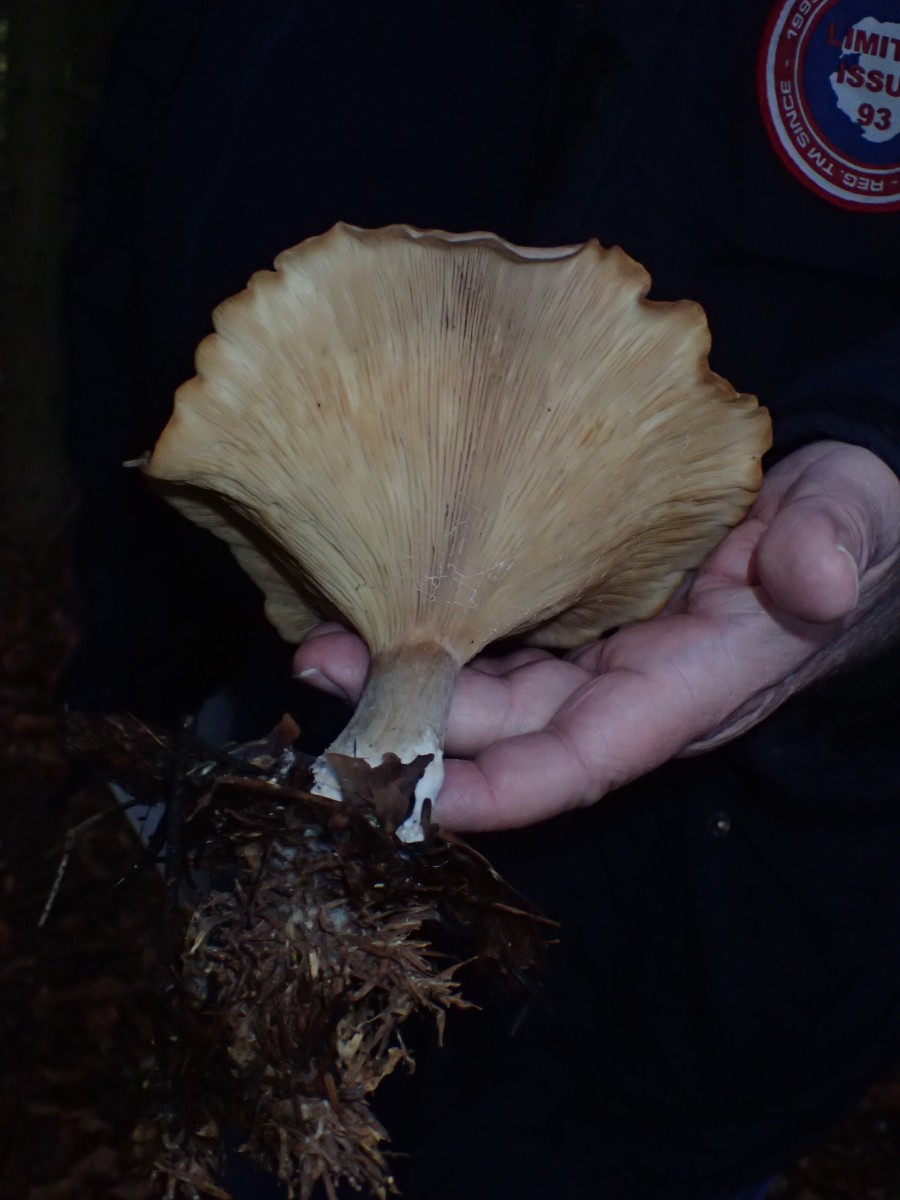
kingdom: Fungi
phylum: Basidiomycota
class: Agaricomycetes
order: Agaricales
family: Tricholomataceae
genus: Clitocybe
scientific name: Clitocybe nebularis
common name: tåge-tragthat
